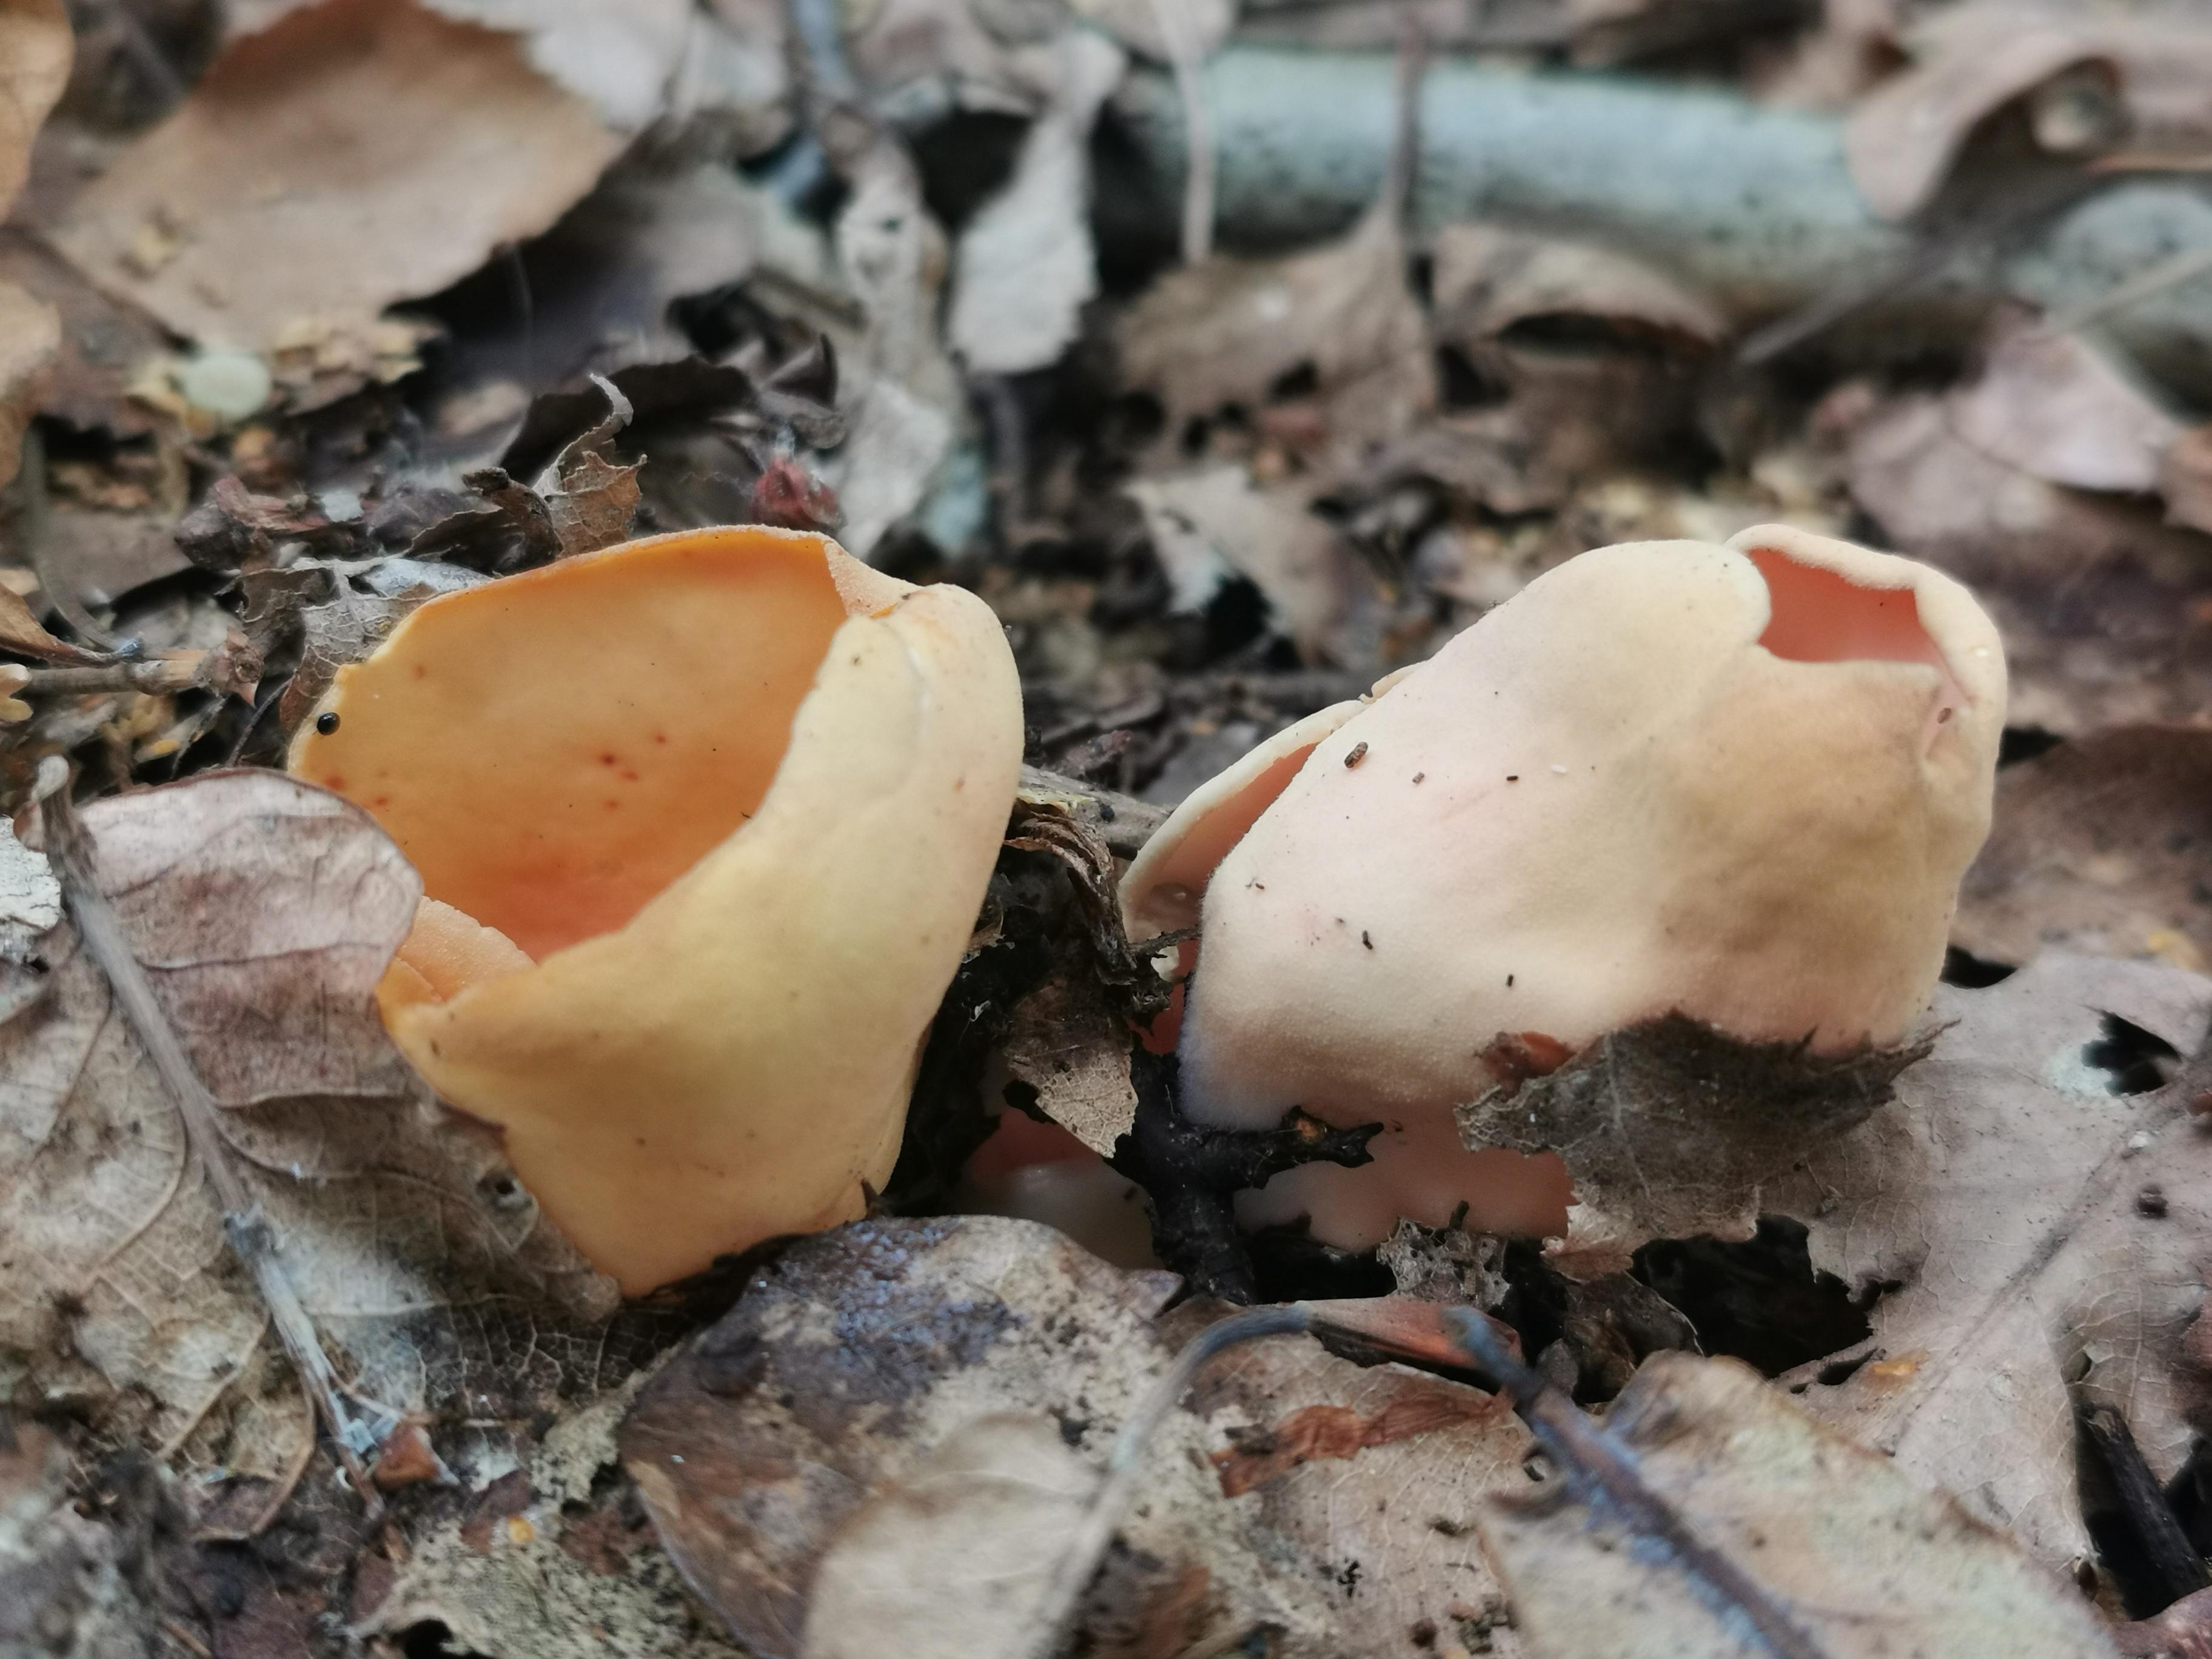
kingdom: Fungi
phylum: Ascomycota
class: Pezizomycetes
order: Pezizales
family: Otideaceae
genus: Otidea
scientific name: Otidea onotica
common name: æsel-ørebæger
